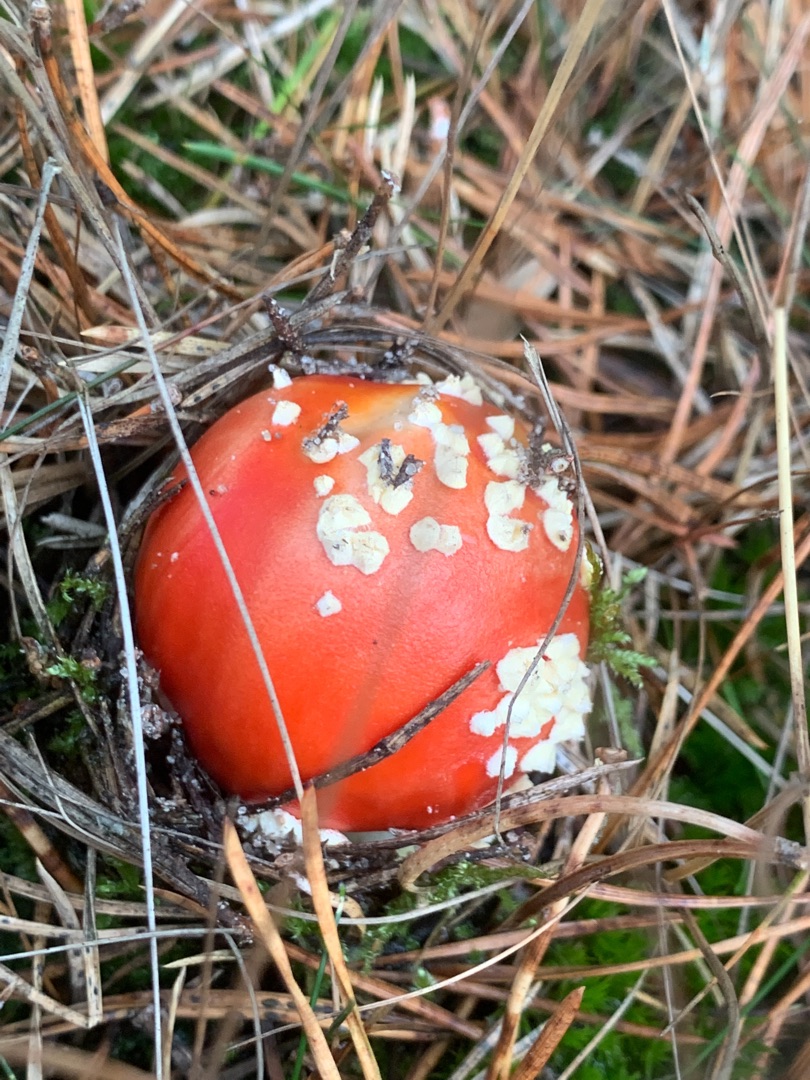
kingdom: Fungi
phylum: Basidiomycota
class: Agaricomycetes
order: Agaricales
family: Amanitaceae
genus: Amanita
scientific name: Amanita muscaria
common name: Rød fluesvamp
